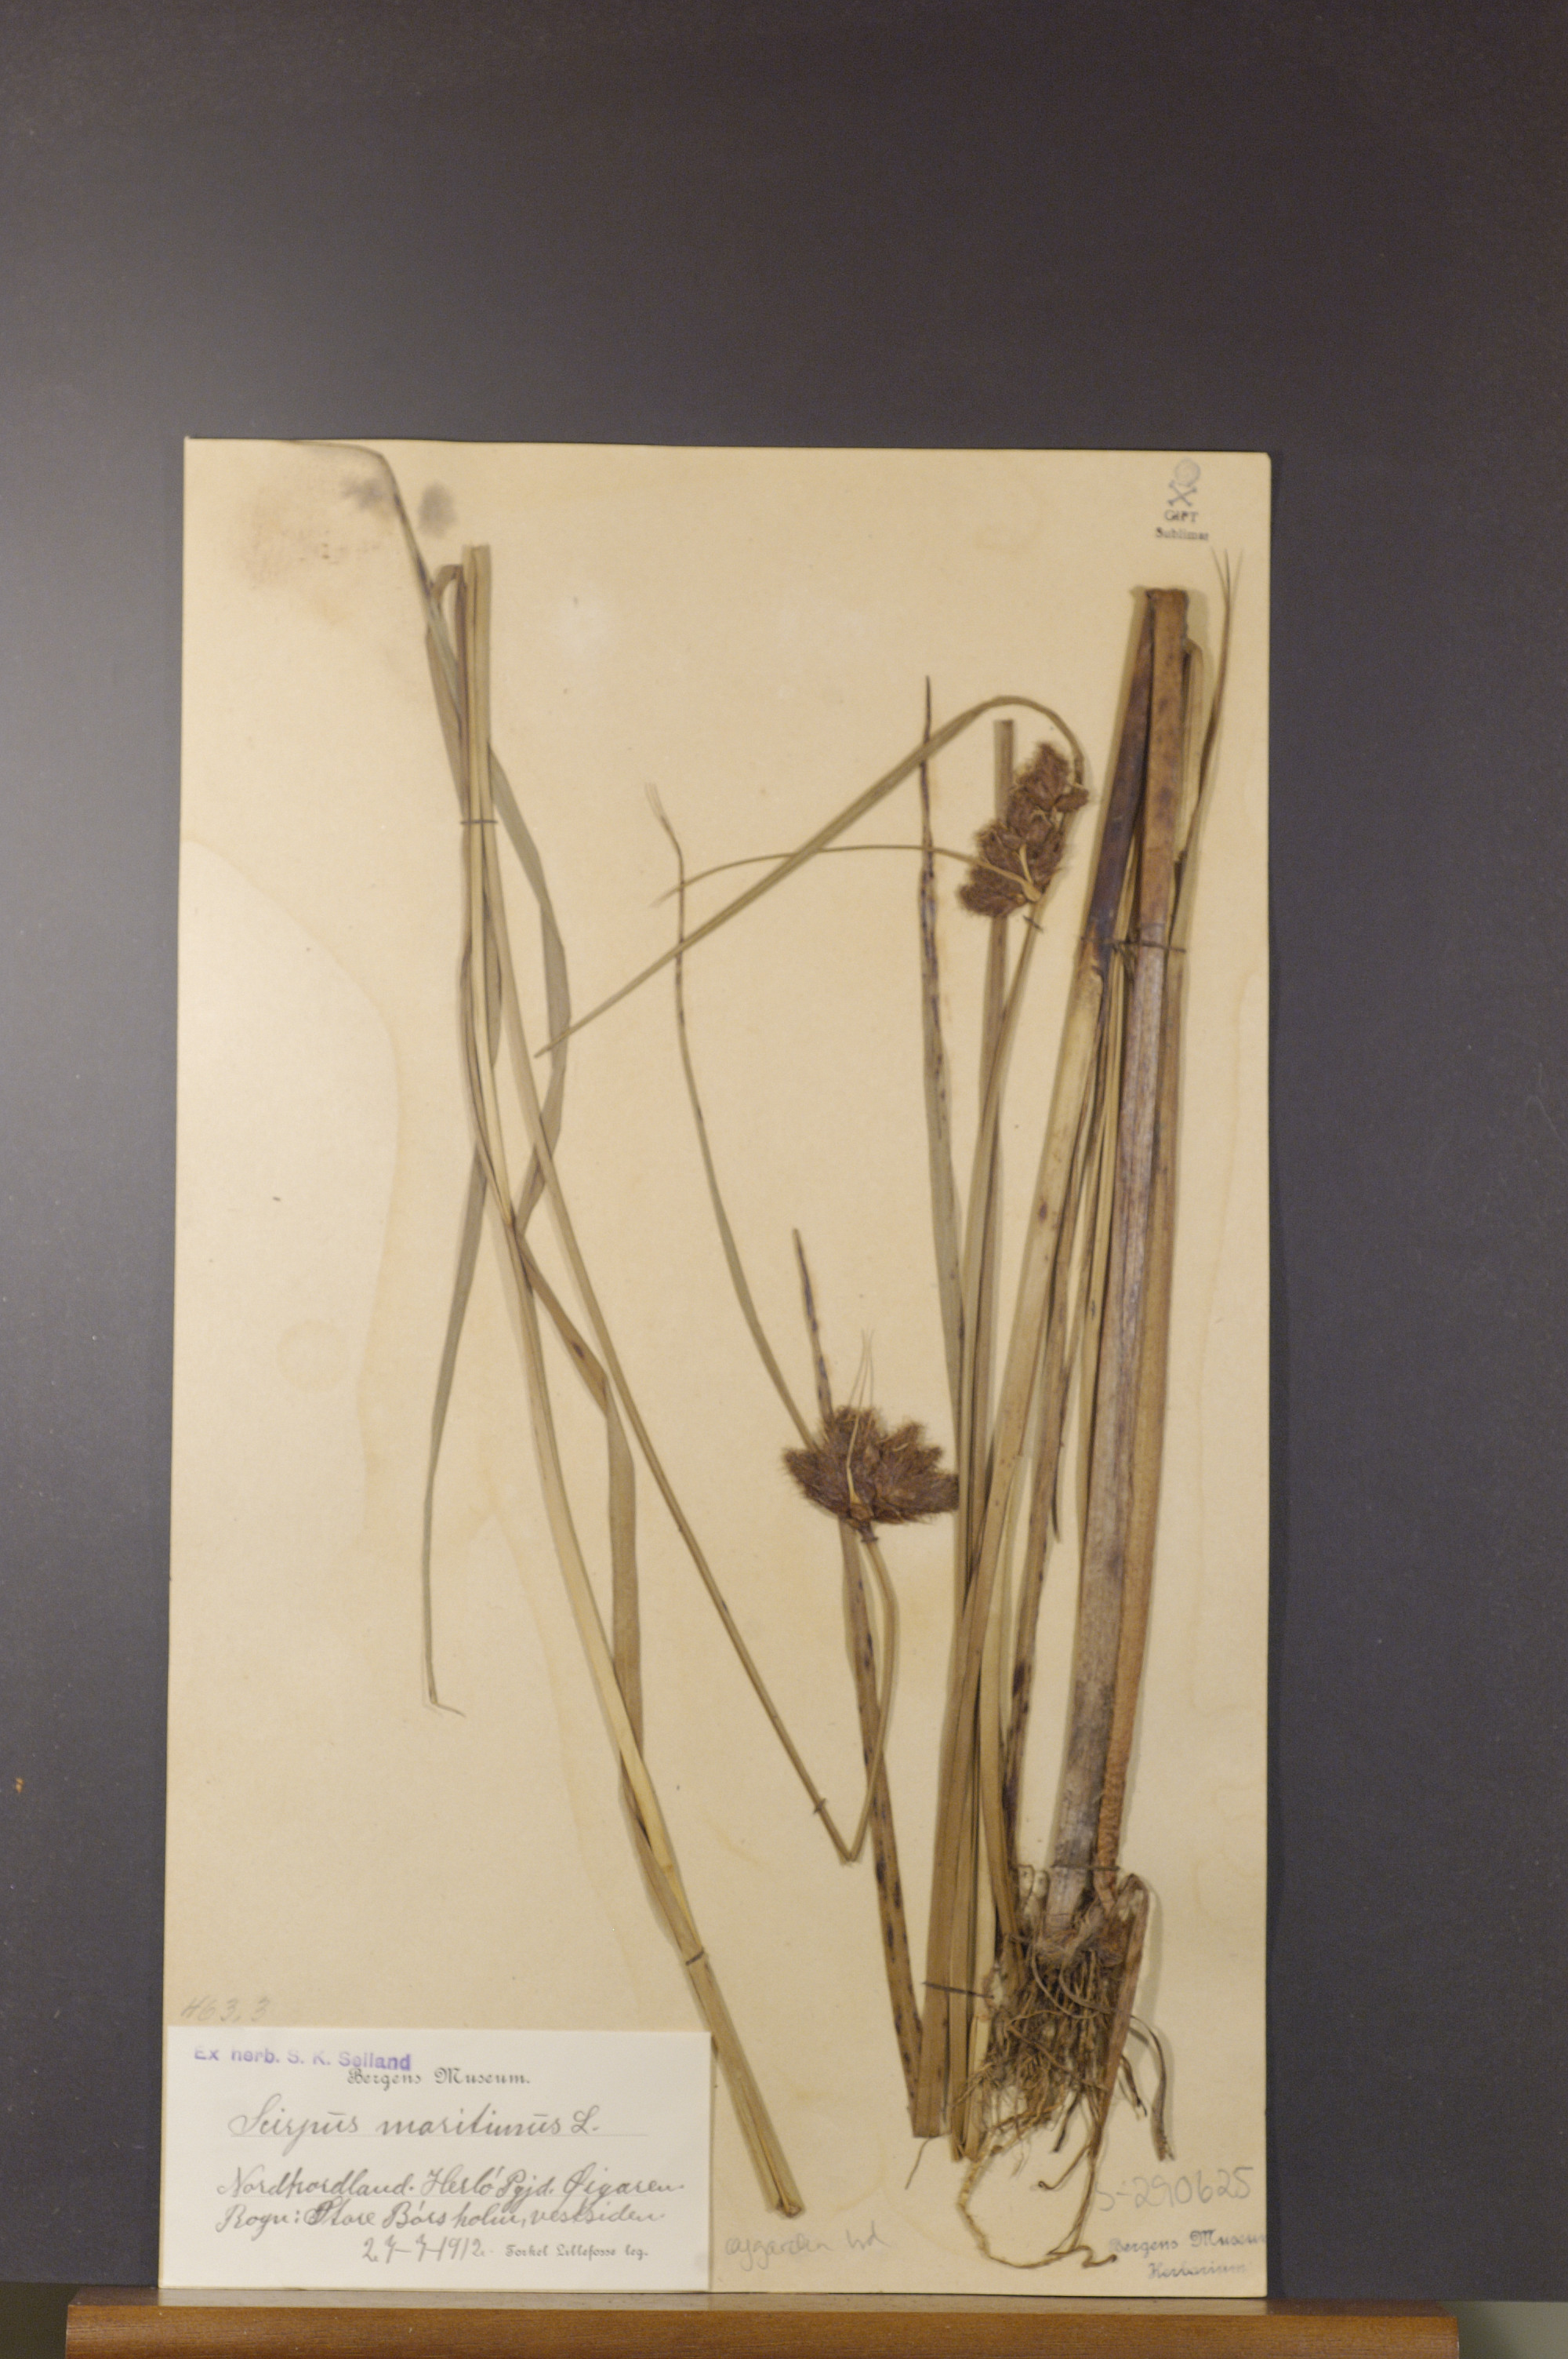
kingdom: Plantae
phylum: Tracheophyta
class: Liliopsida
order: Poales
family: Cyperaceae
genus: Bolboschoenus
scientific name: Bolboschoenus maritimus
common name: Sea club-rush
